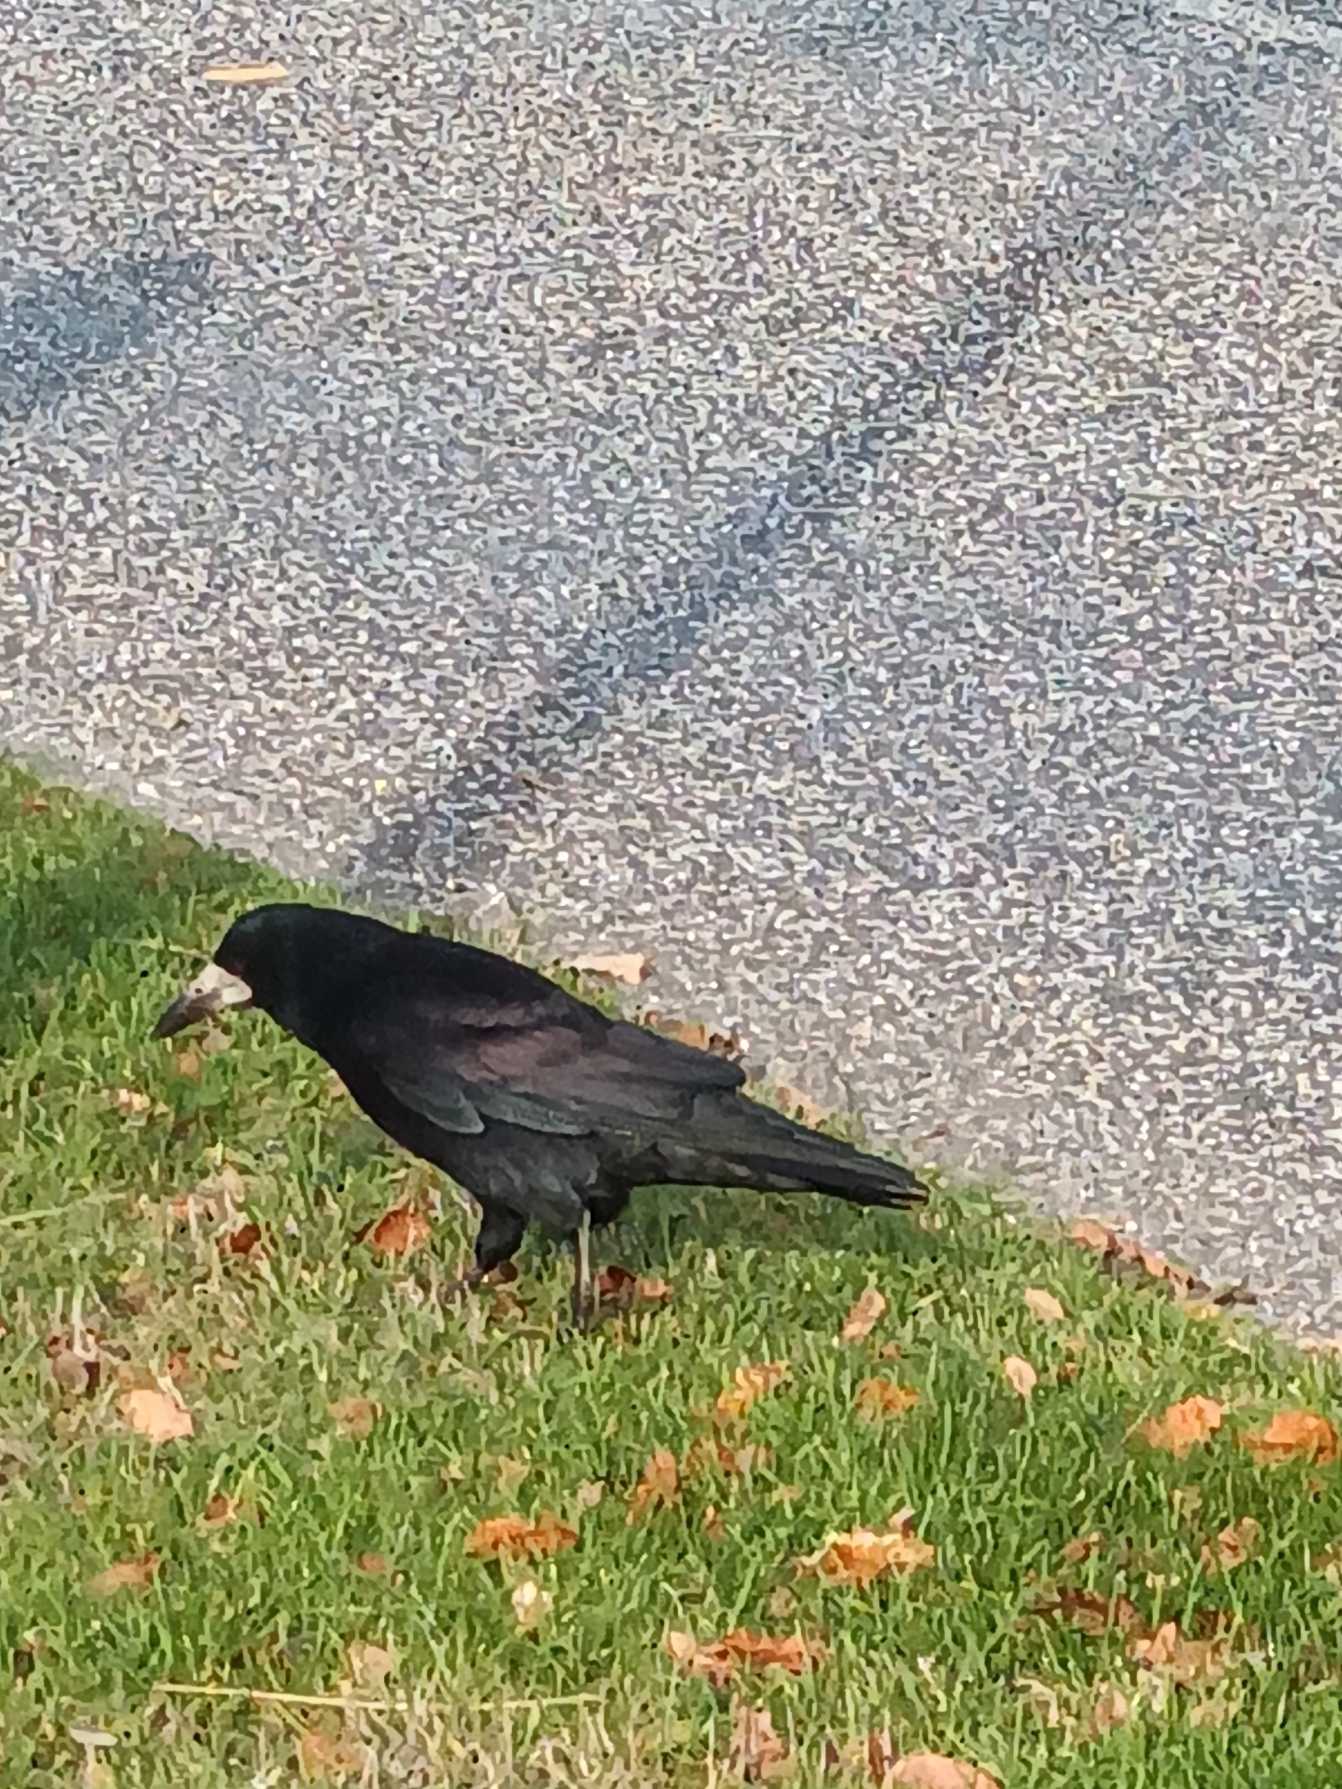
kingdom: Animalia
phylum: Chordata
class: Aves
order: Passeriformes
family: Corvidae
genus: Corvus
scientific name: Corvus frugilegus
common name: Råge
